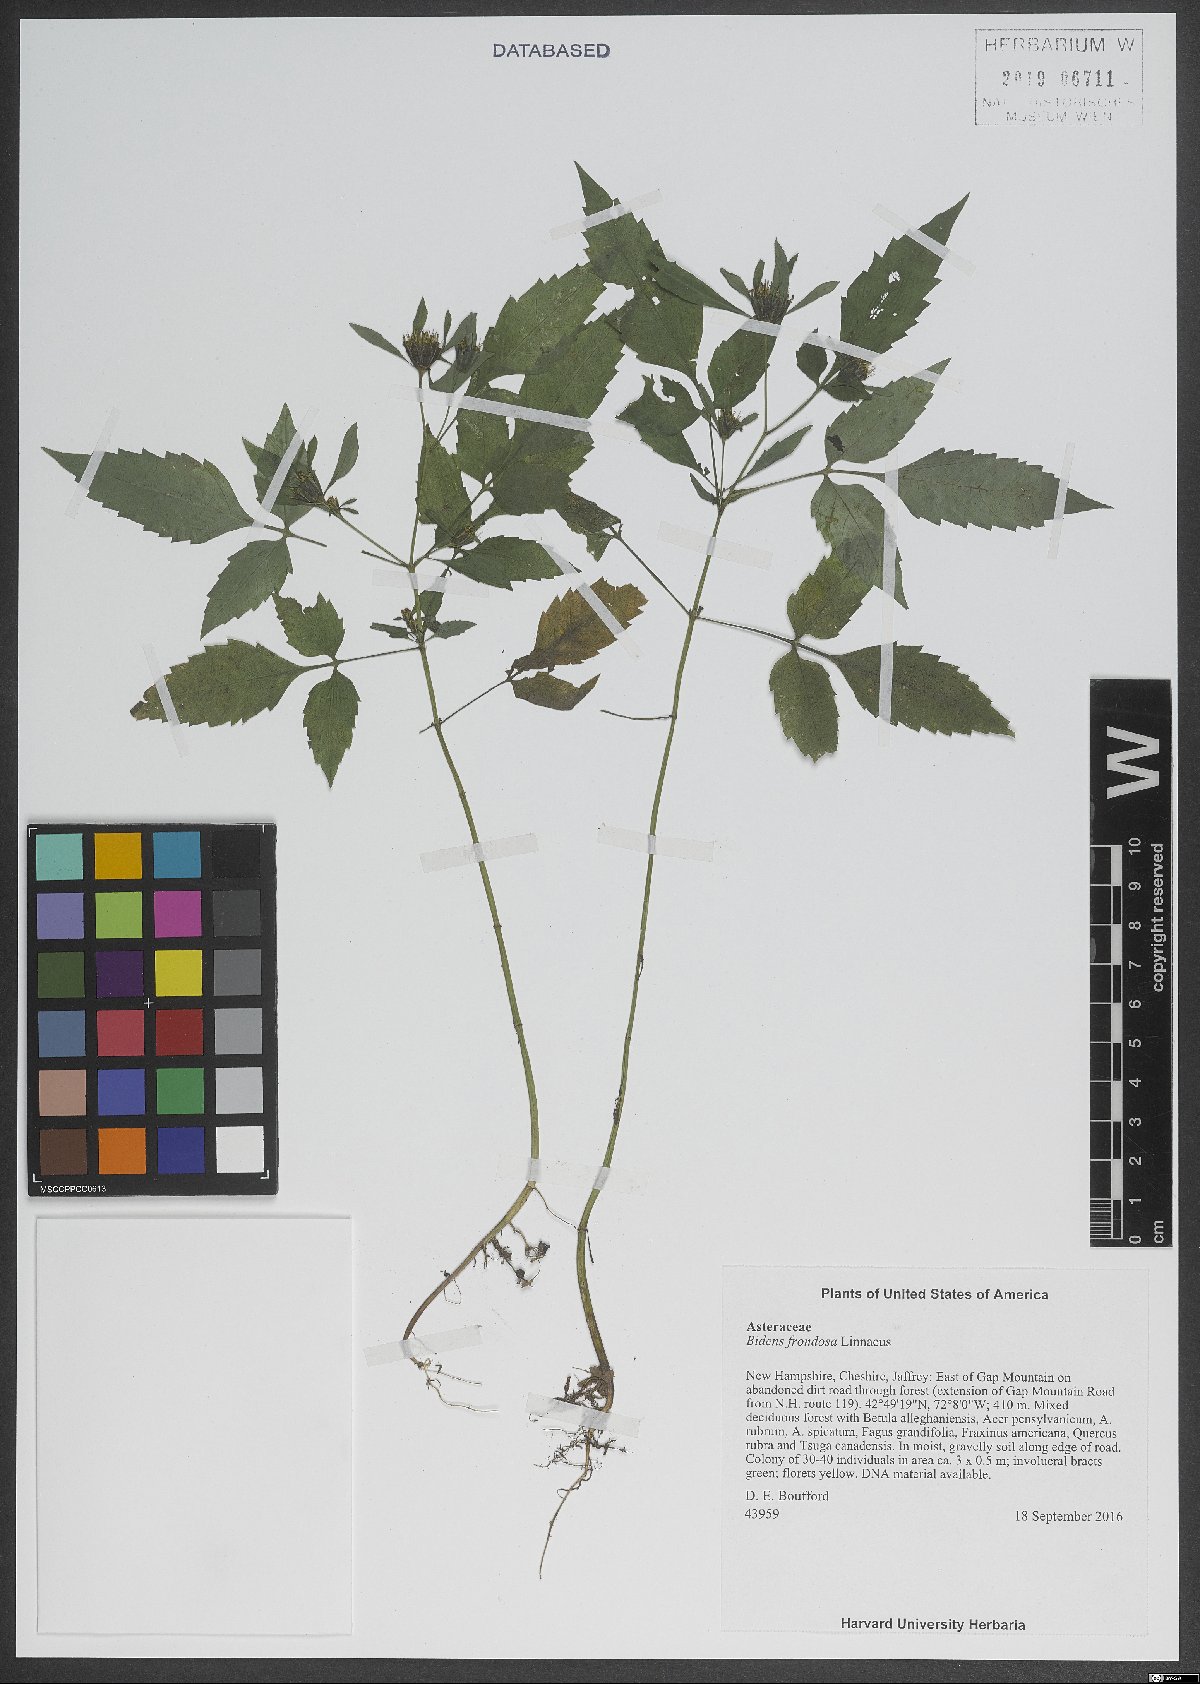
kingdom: Plantae
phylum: Tracheophyta
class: Magnoliopsida
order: Asterales
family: Asteraceae
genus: Bidens
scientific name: Bidens frondosa
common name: Beggarticks
